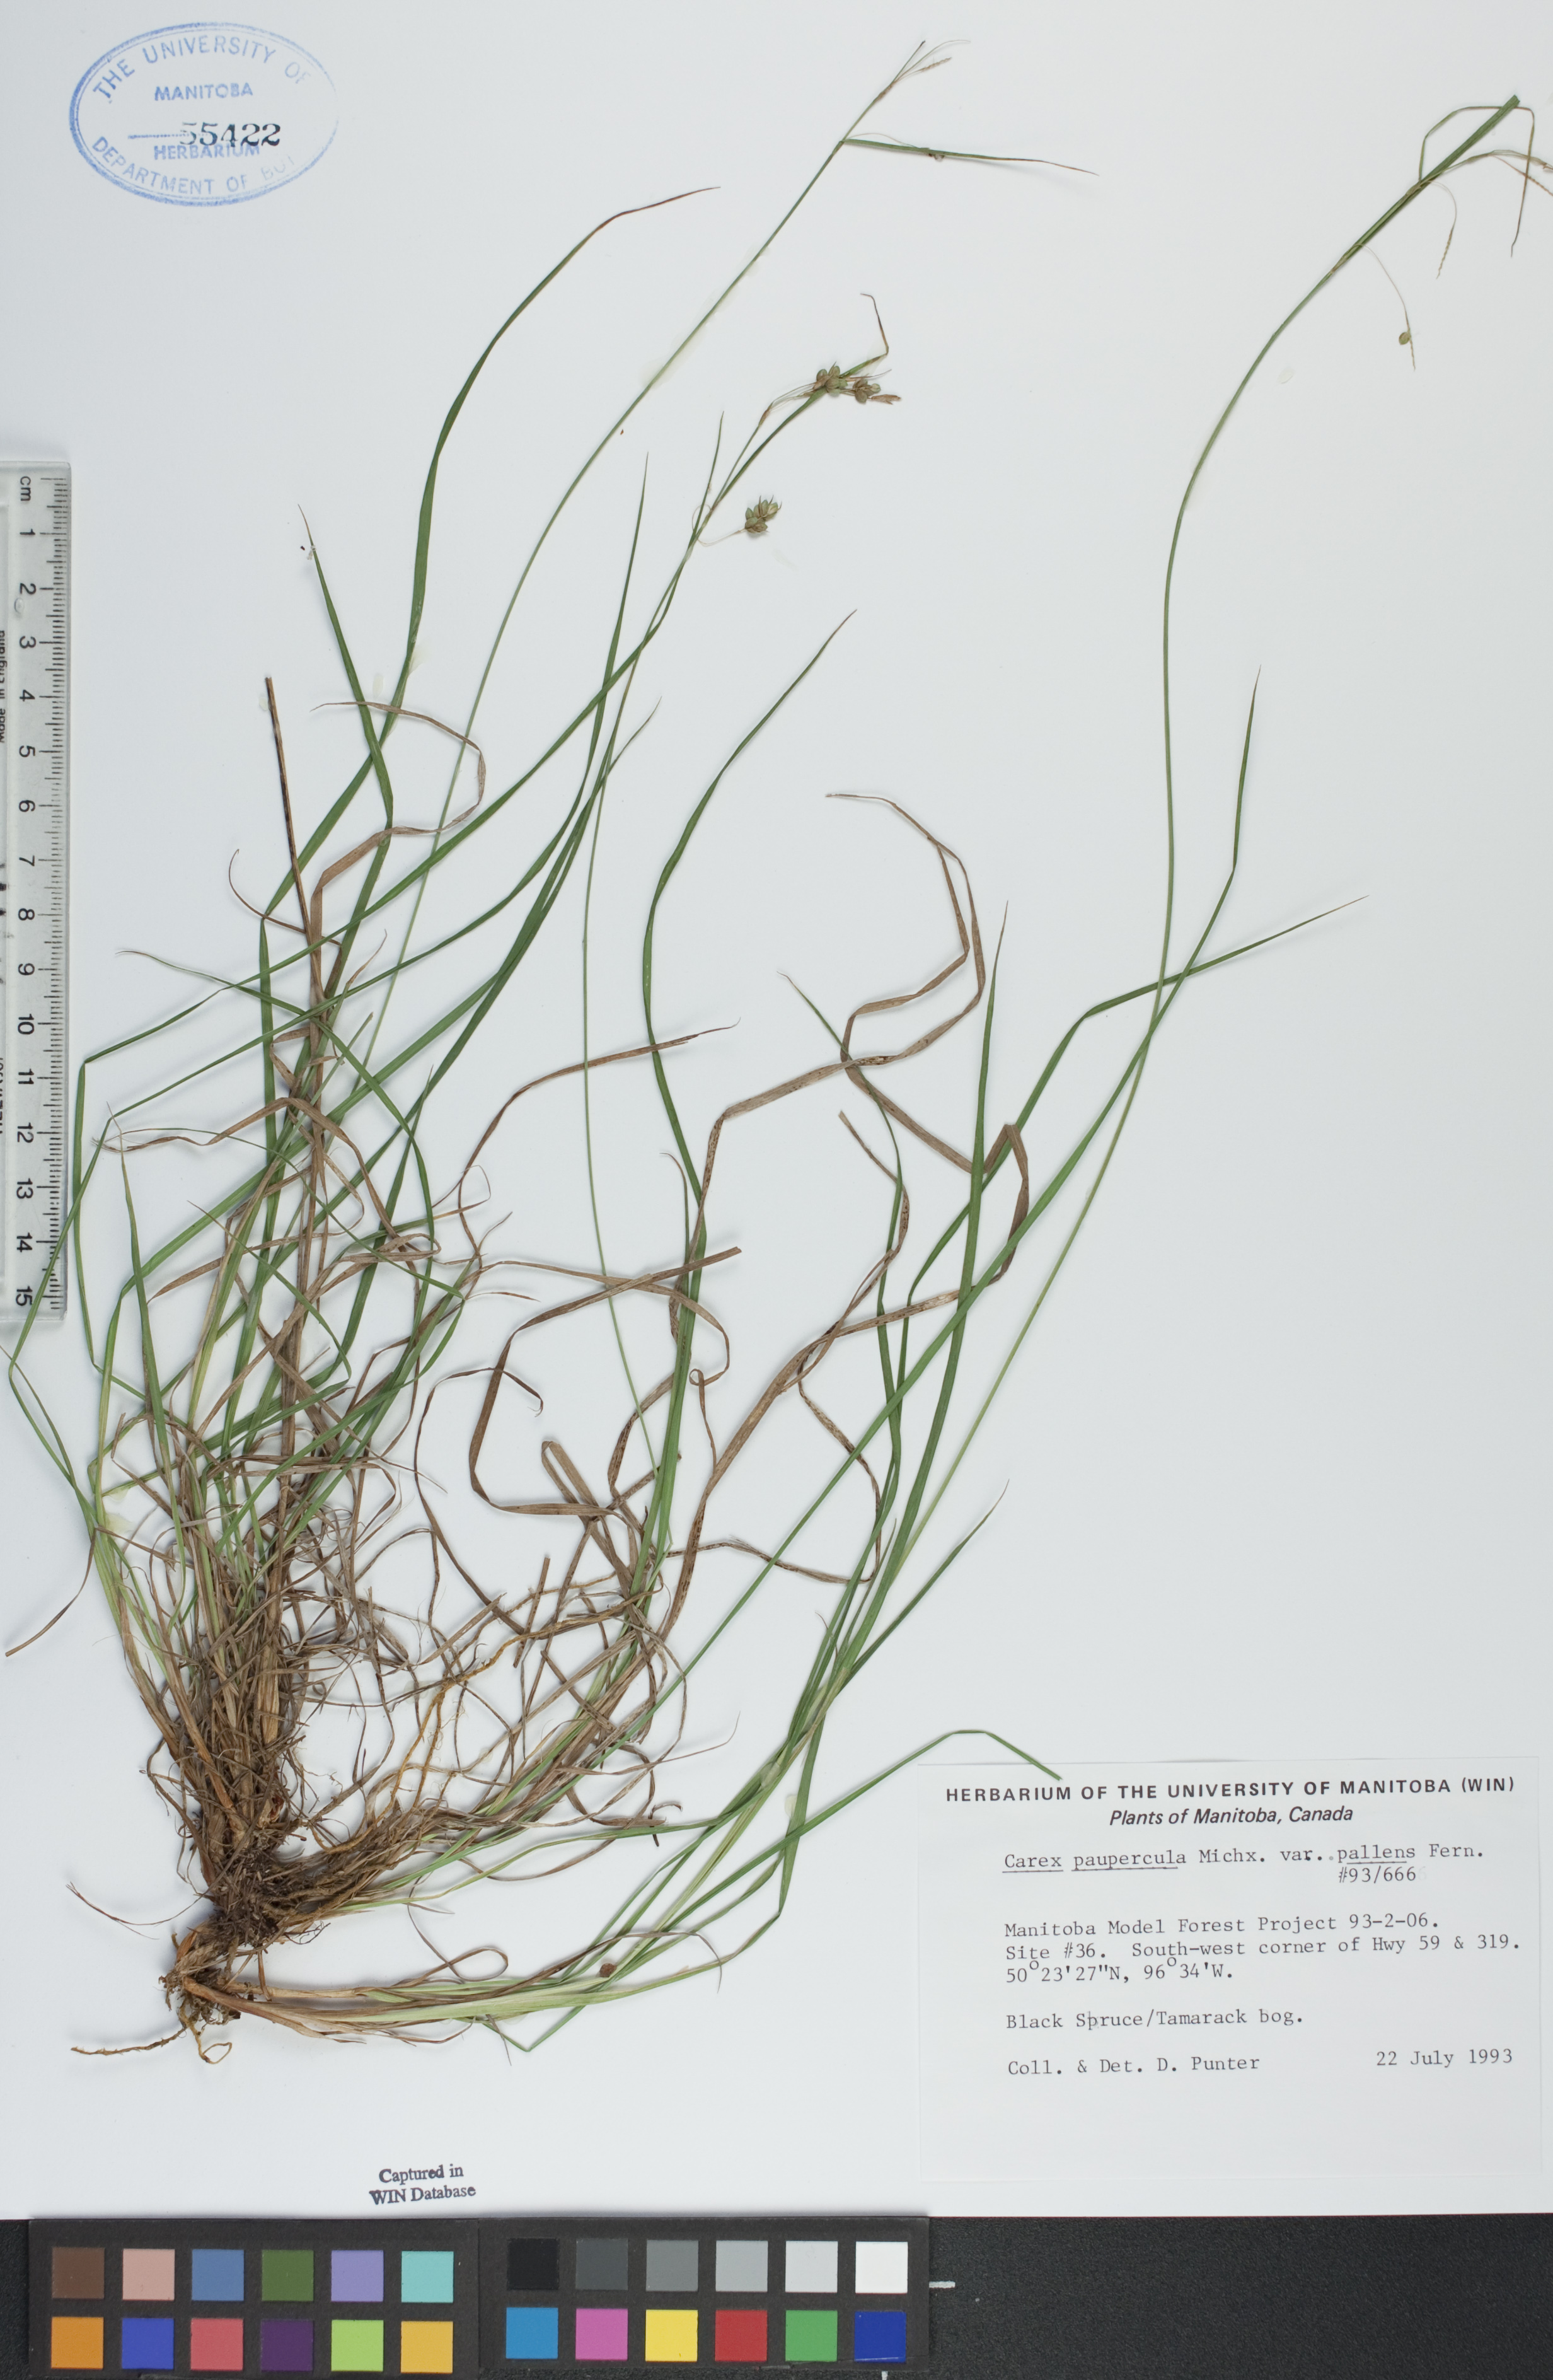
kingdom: Plantae
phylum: Tracheophyta
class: Liliopsida
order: Poales
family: Cyperaceae
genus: Carex
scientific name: Carex magellanica
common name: Bog sedge
